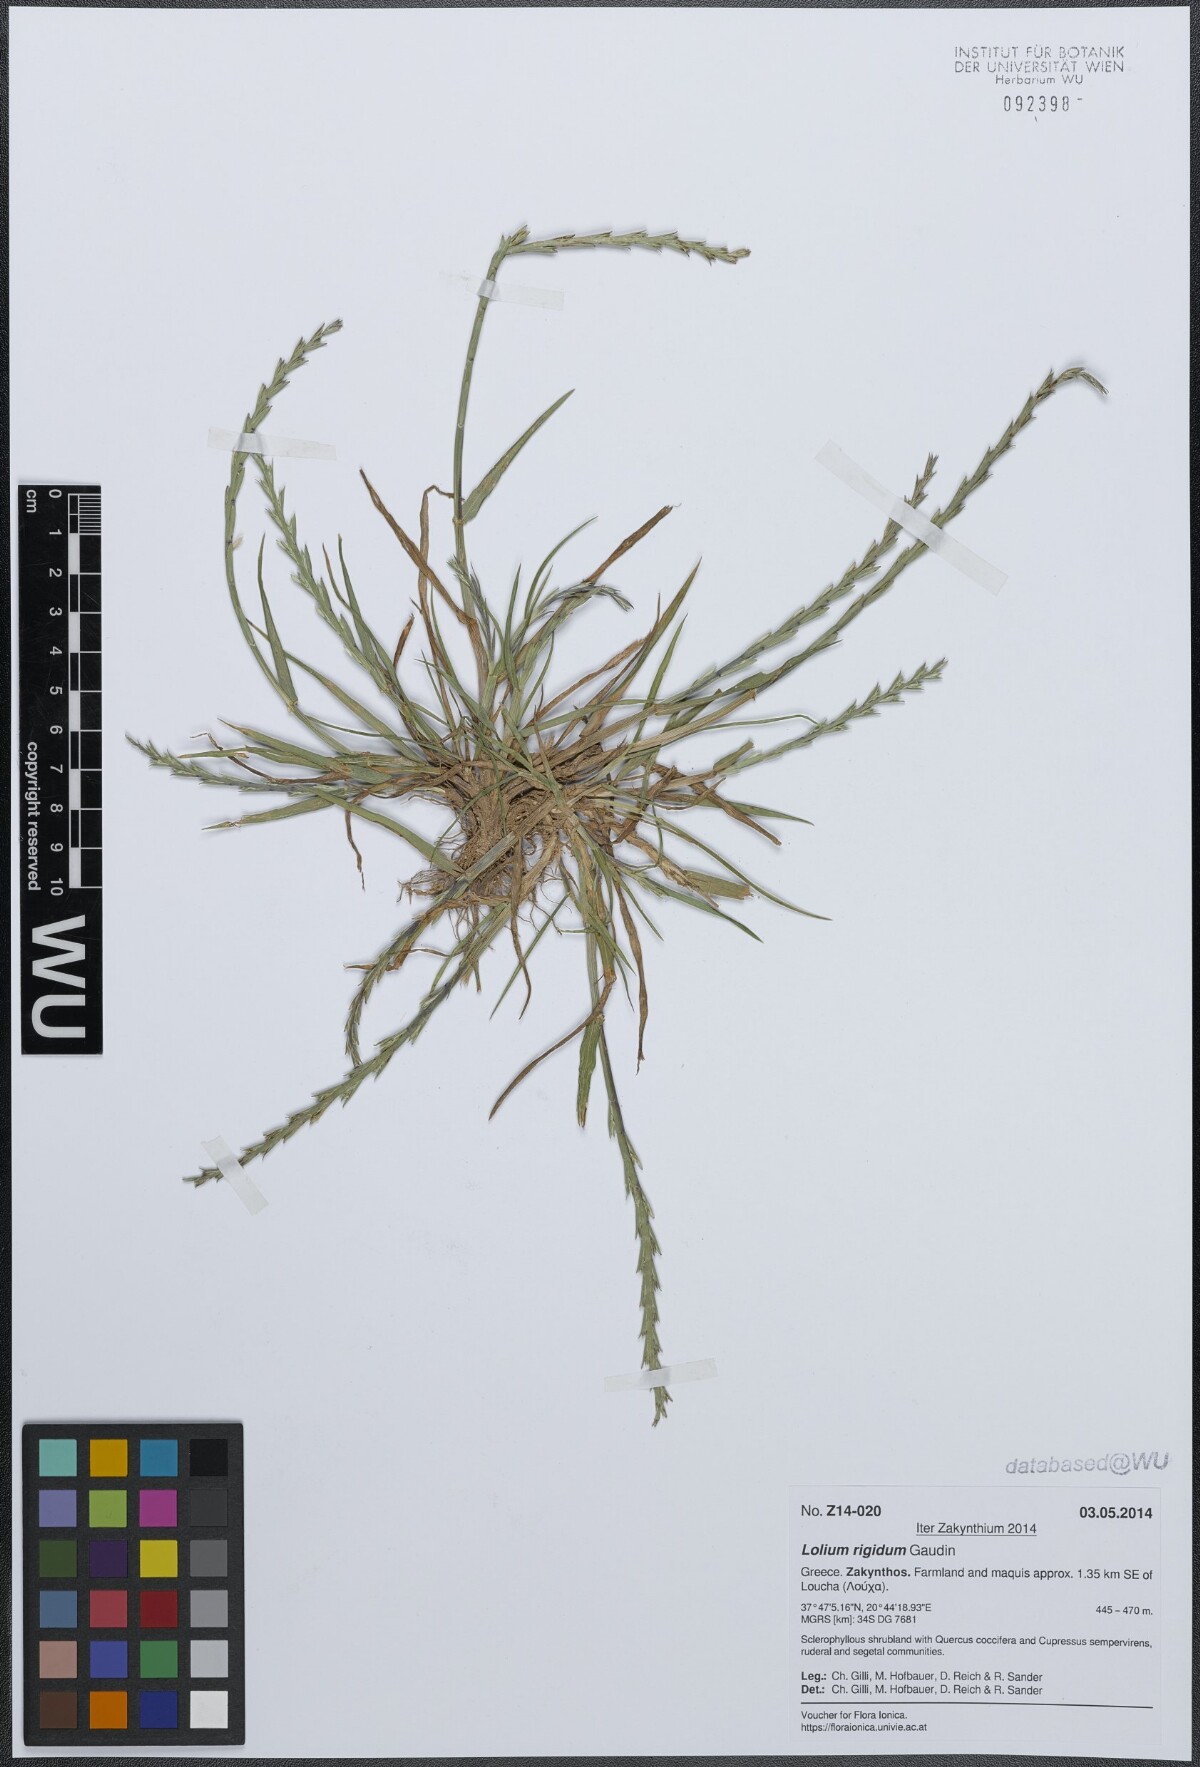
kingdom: Plantae
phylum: Tracheophyta
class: Liliopsida
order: Poales
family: Poaceae
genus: Lolium
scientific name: Lolium rigidum
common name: Wimmera ryegrass
